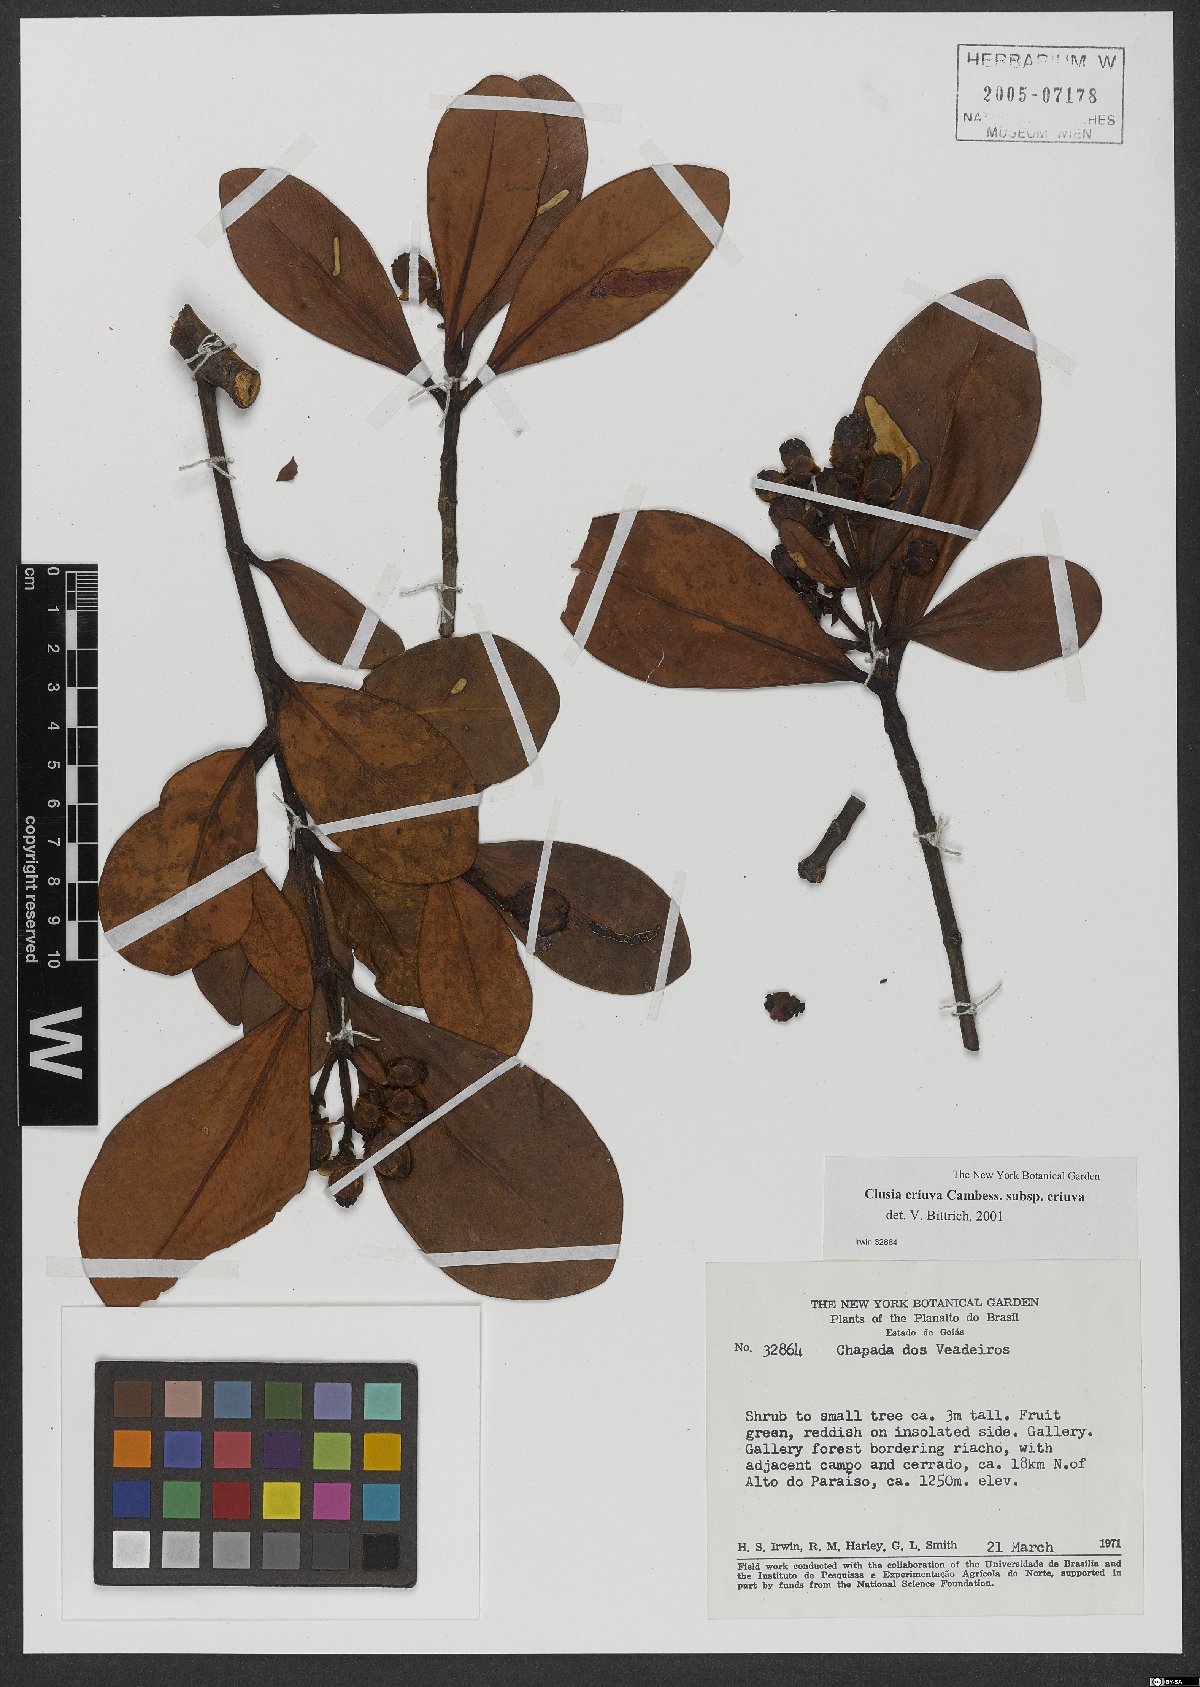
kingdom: Plantae
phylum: Tracheophyta
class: Magnoliopsida
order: Malpighiales
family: Clusiaceae
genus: Clusia
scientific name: Clusia criuva
